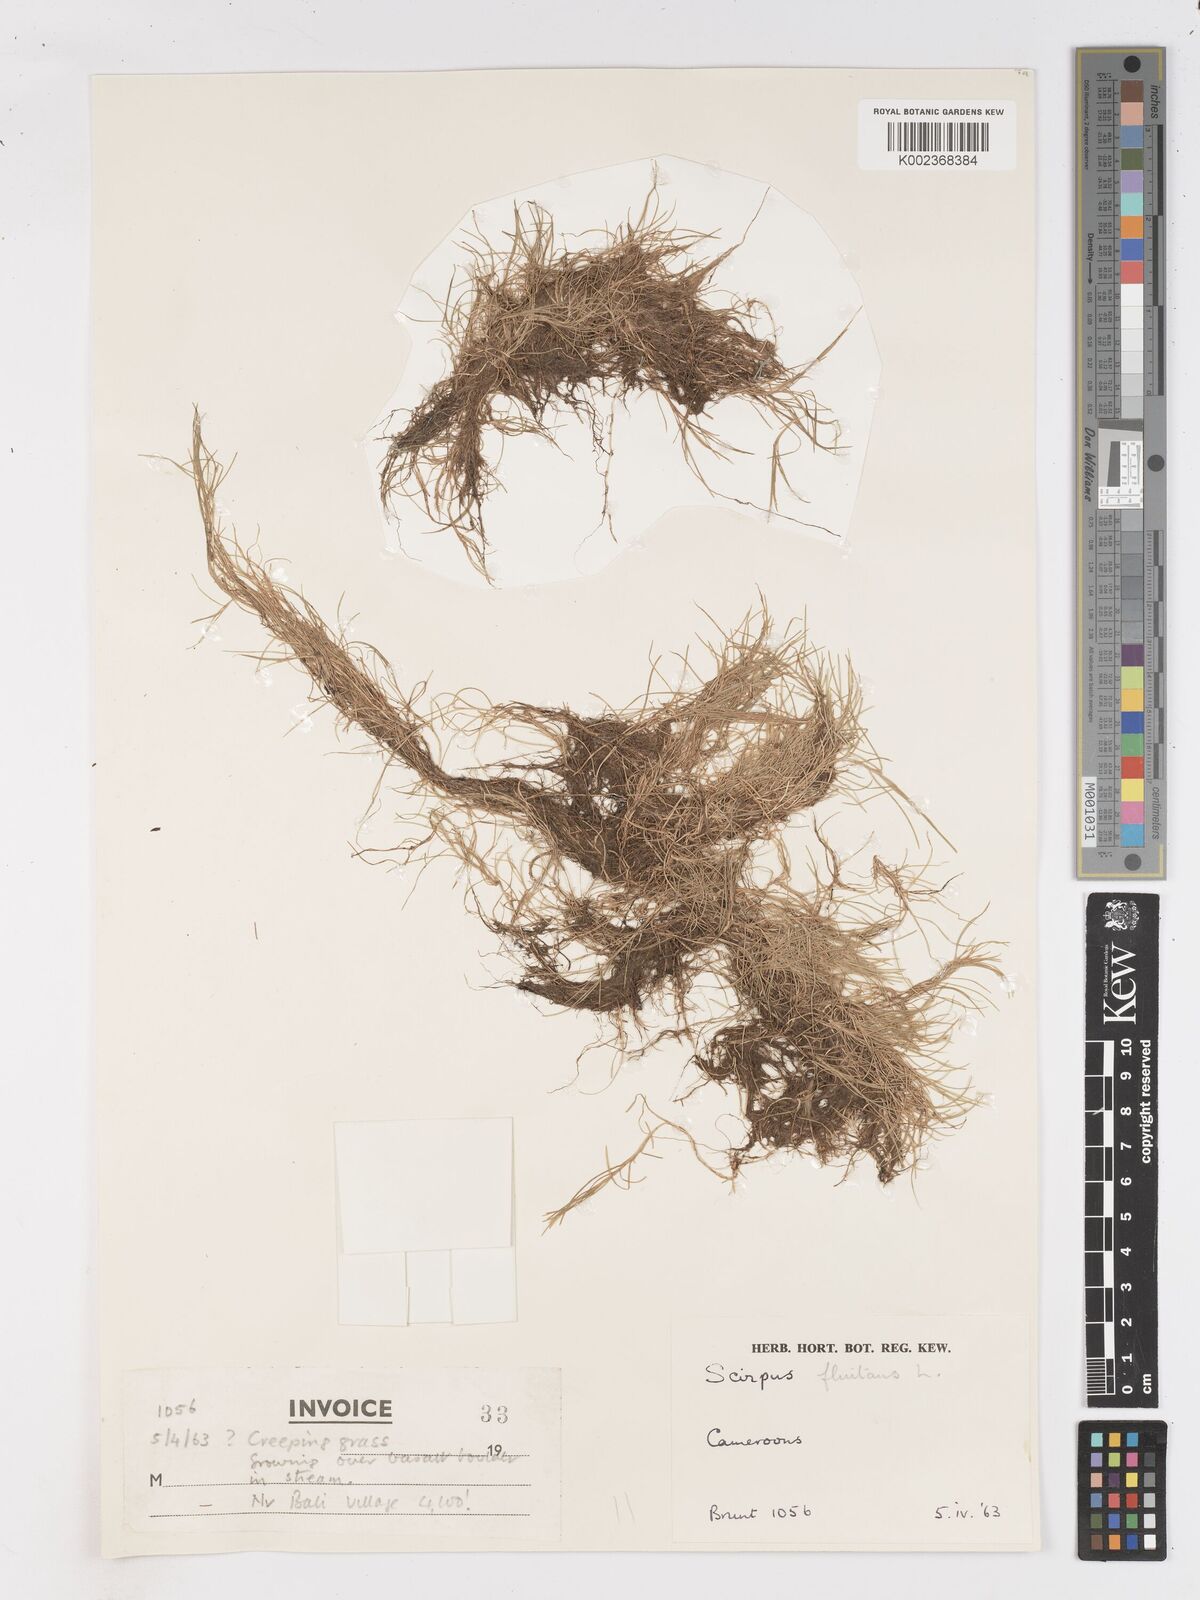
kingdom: Plantae
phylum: Tracheophyta
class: Liliopsida
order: Poales
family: Cyperaceae
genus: Isolepis
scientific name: Isolepis fluitans
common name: Floating club-rush
